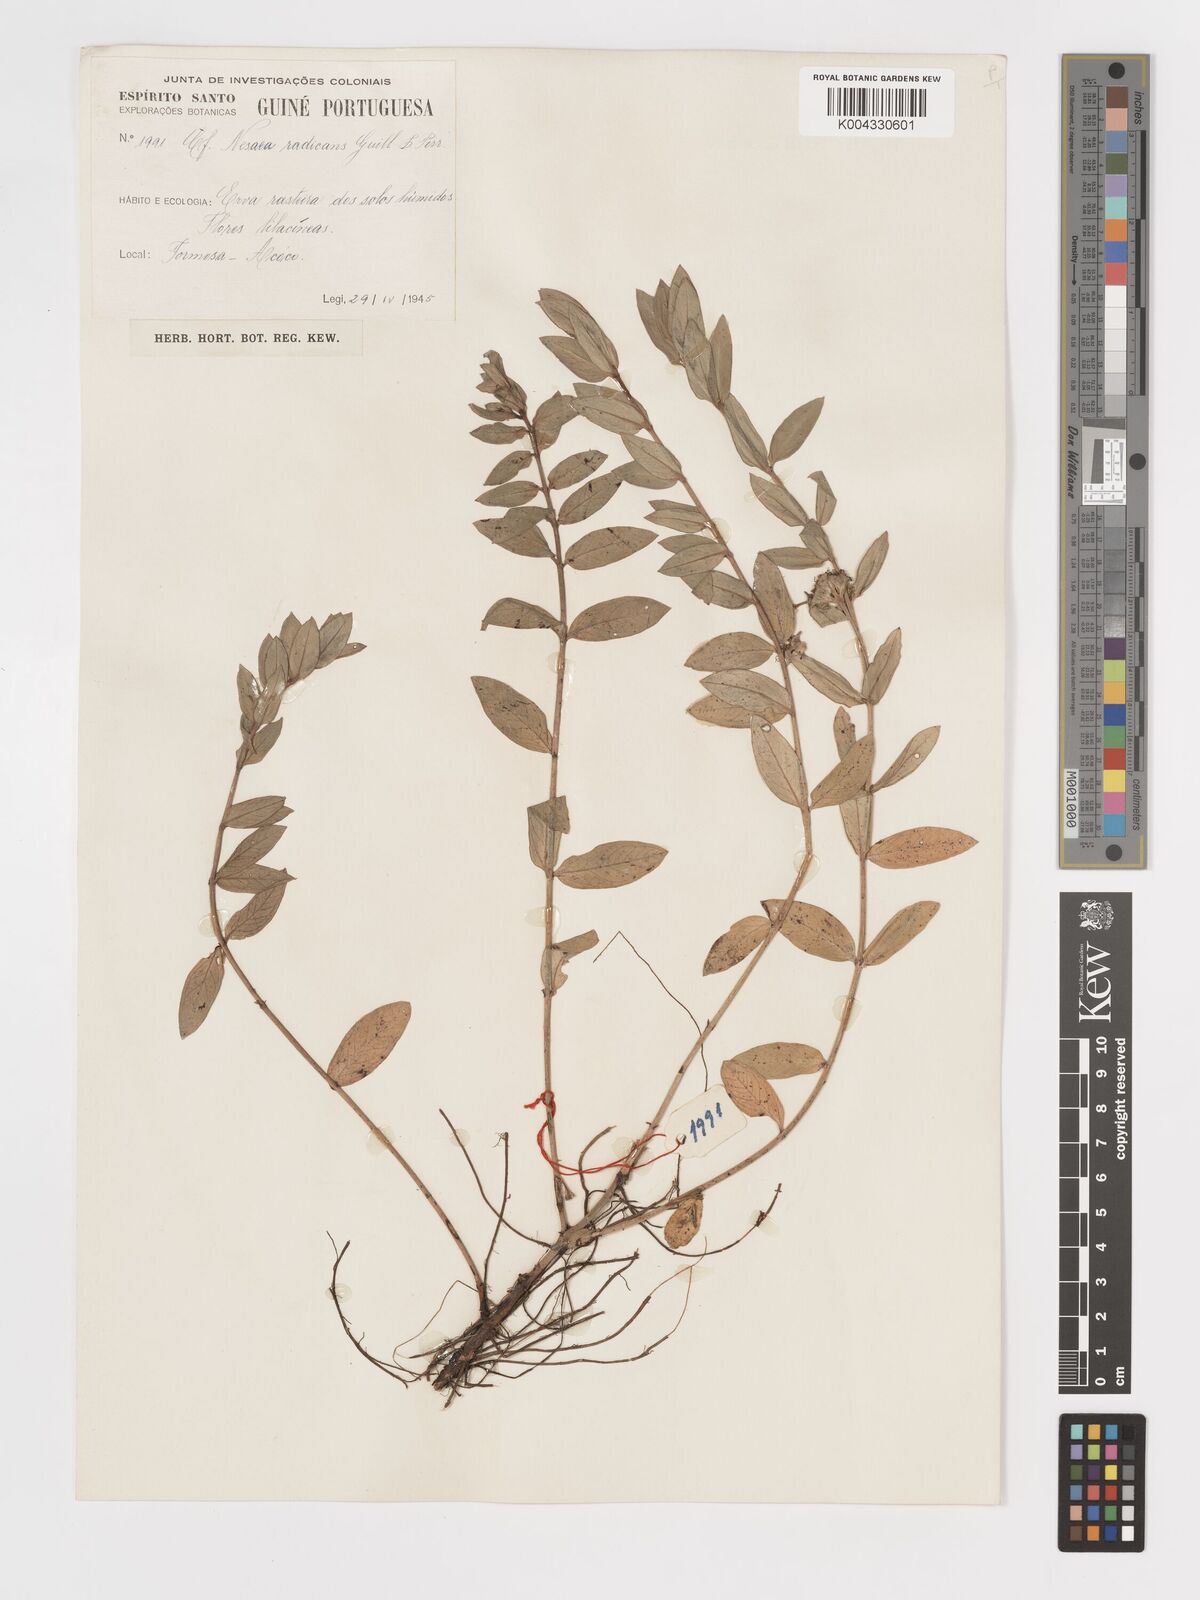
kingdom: Plantae
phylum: Tracheophyta
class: Magnoliopsida
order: Myrtales
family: Lythraceae
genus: Ammannia
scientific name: Ammannia radicans
